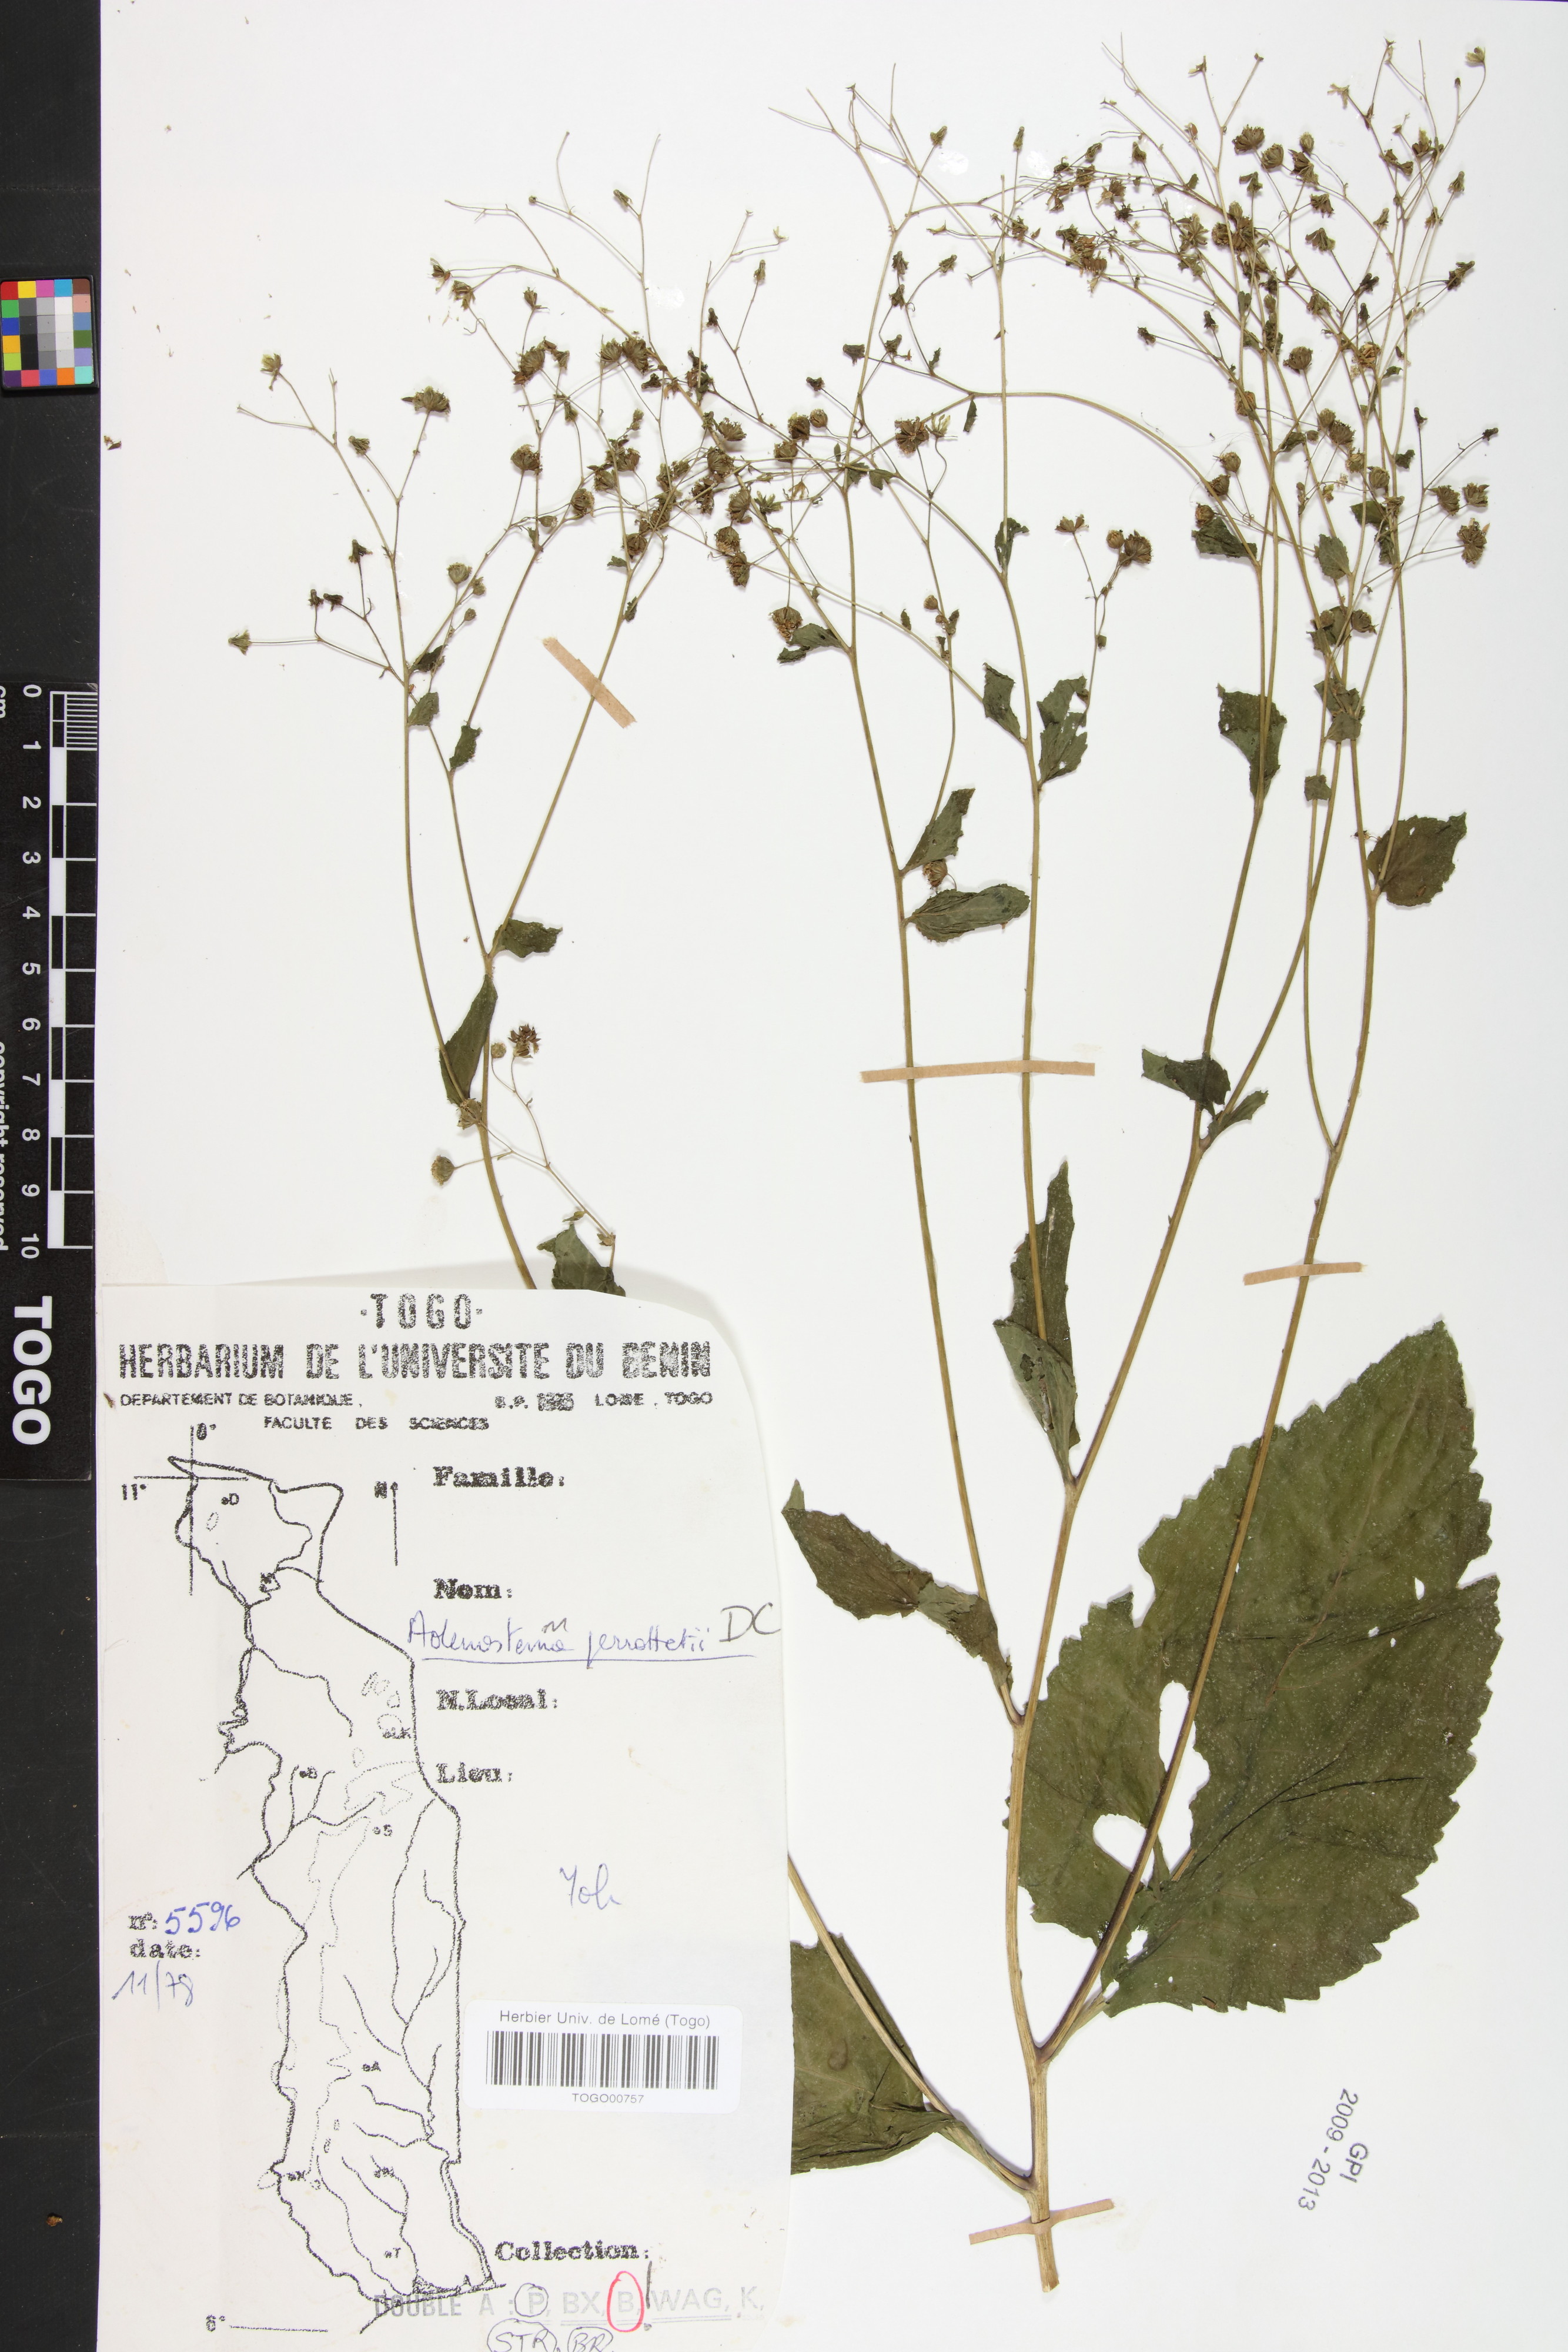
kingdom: Plantae
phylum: Tracheophyta
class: Magnoliopsida
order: Asterales
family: Asteraceae
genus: Adenostemma
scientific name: Adenostemma viscosum
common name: Dungweed
